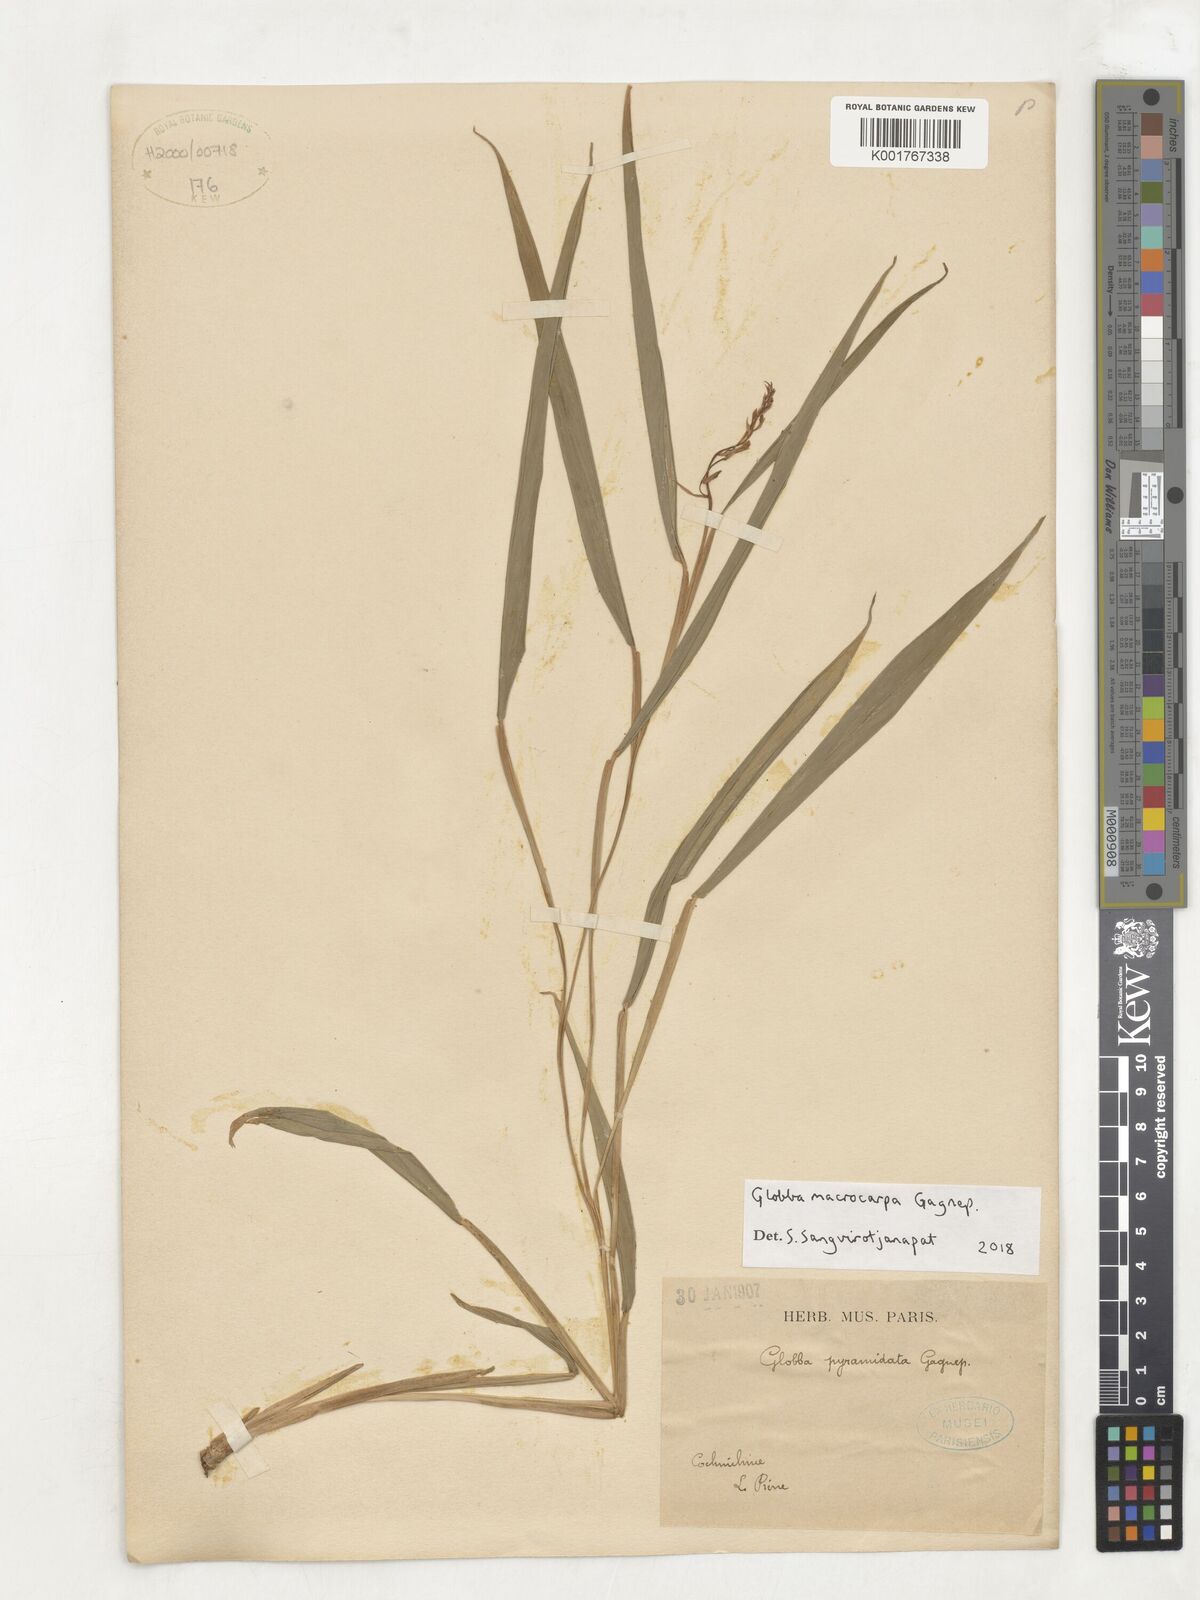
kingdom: Plantae
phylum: Tracheophyta
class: Liliopsida
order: Zingiberales
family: Zingiberaceae
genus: Globba
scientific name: Globba macrocarpa
